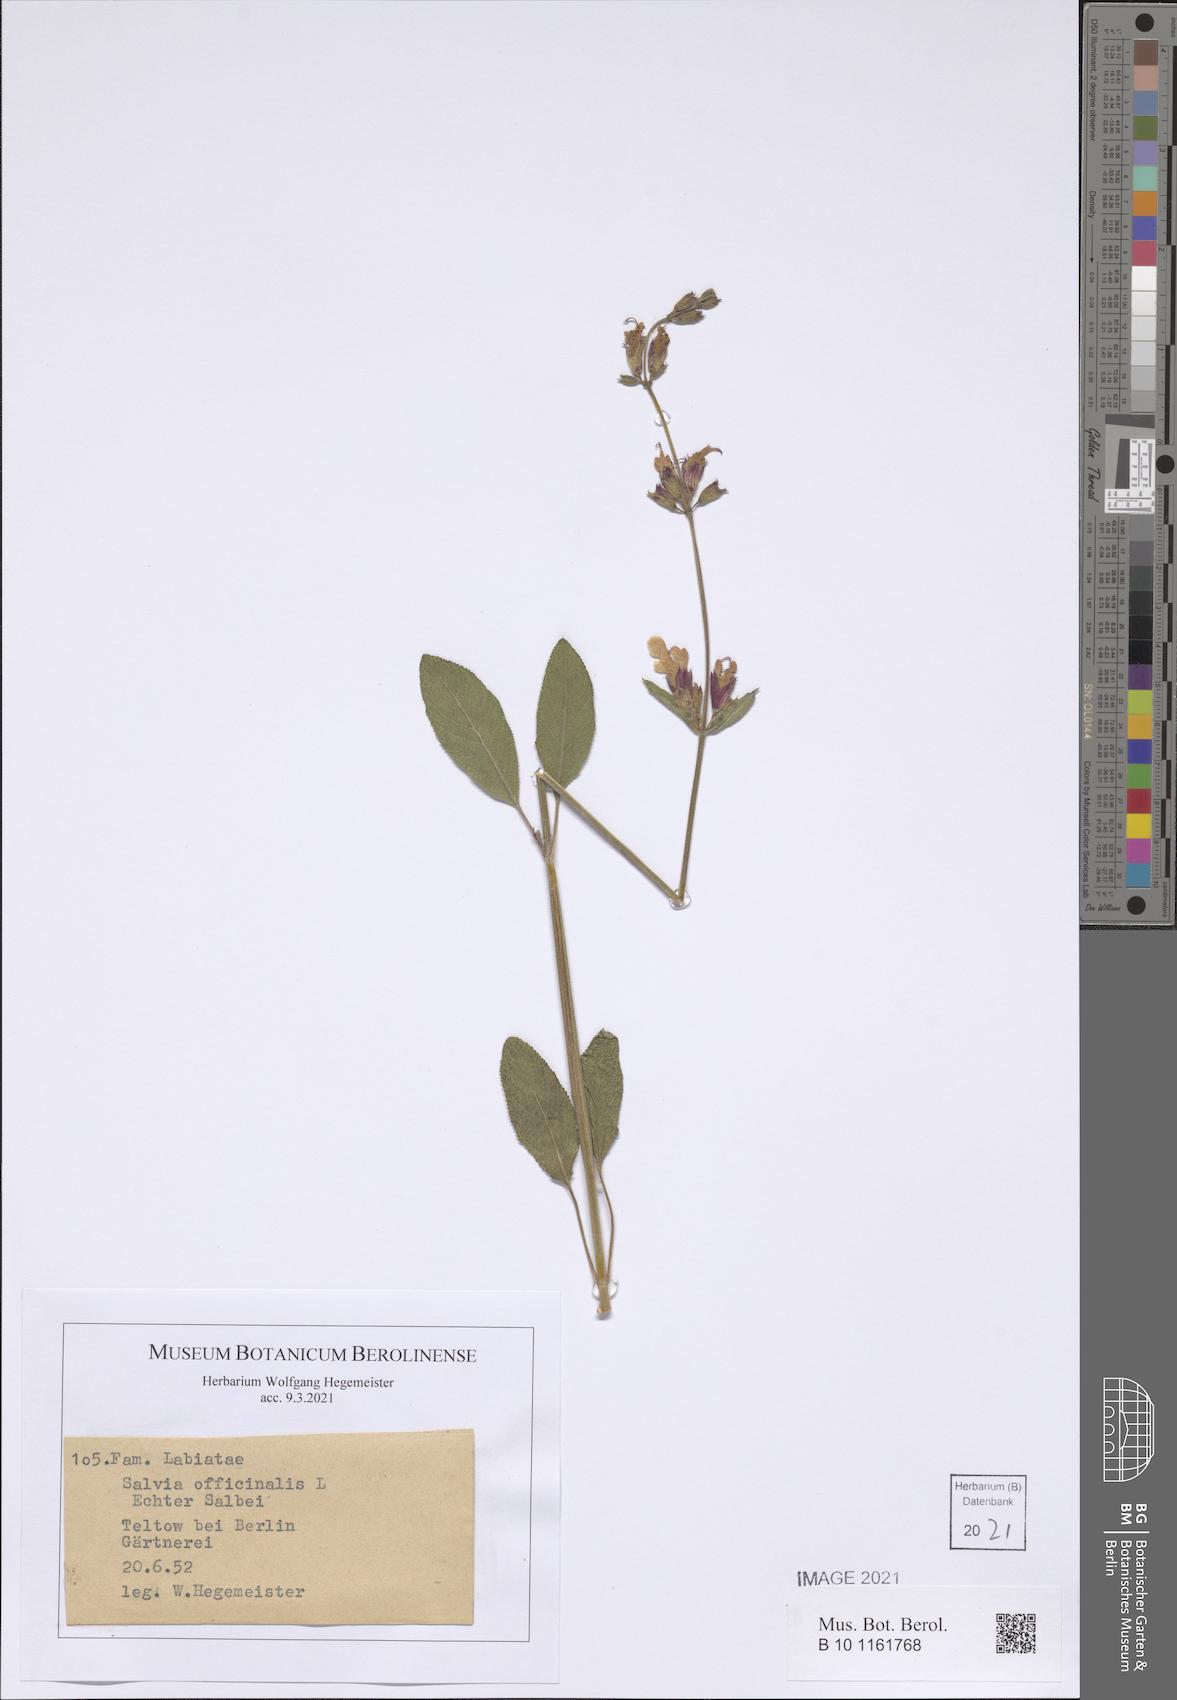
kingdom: Plantae
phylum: Tracheophyta
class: Magnoliopsida
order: Lamiales
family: Lamiaceae
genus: Salvia
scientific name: Salvia officinalis
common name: Sage
